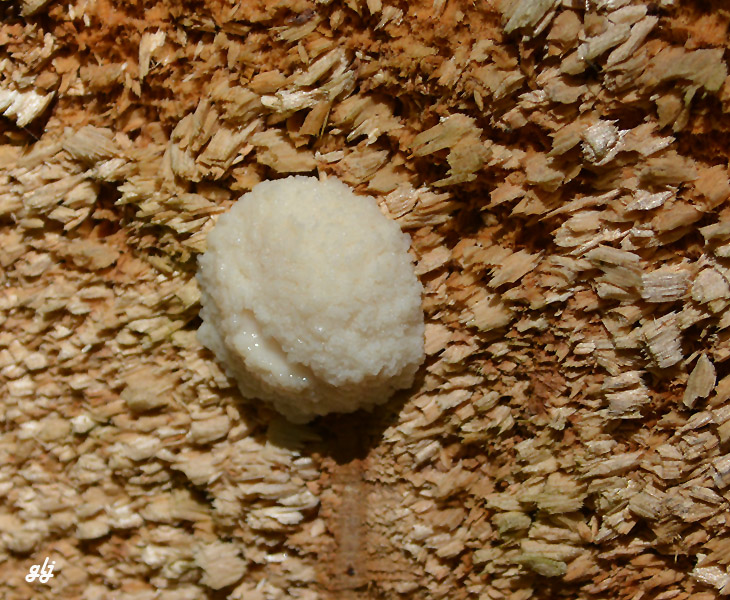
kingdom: Protozoa
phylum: Mycetozoa
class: Myxomycetes
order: Cribrariales
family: Tubiferaceae
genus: Reticularia
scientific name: Reticularia lycoperdon
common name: skinnende støvpude
